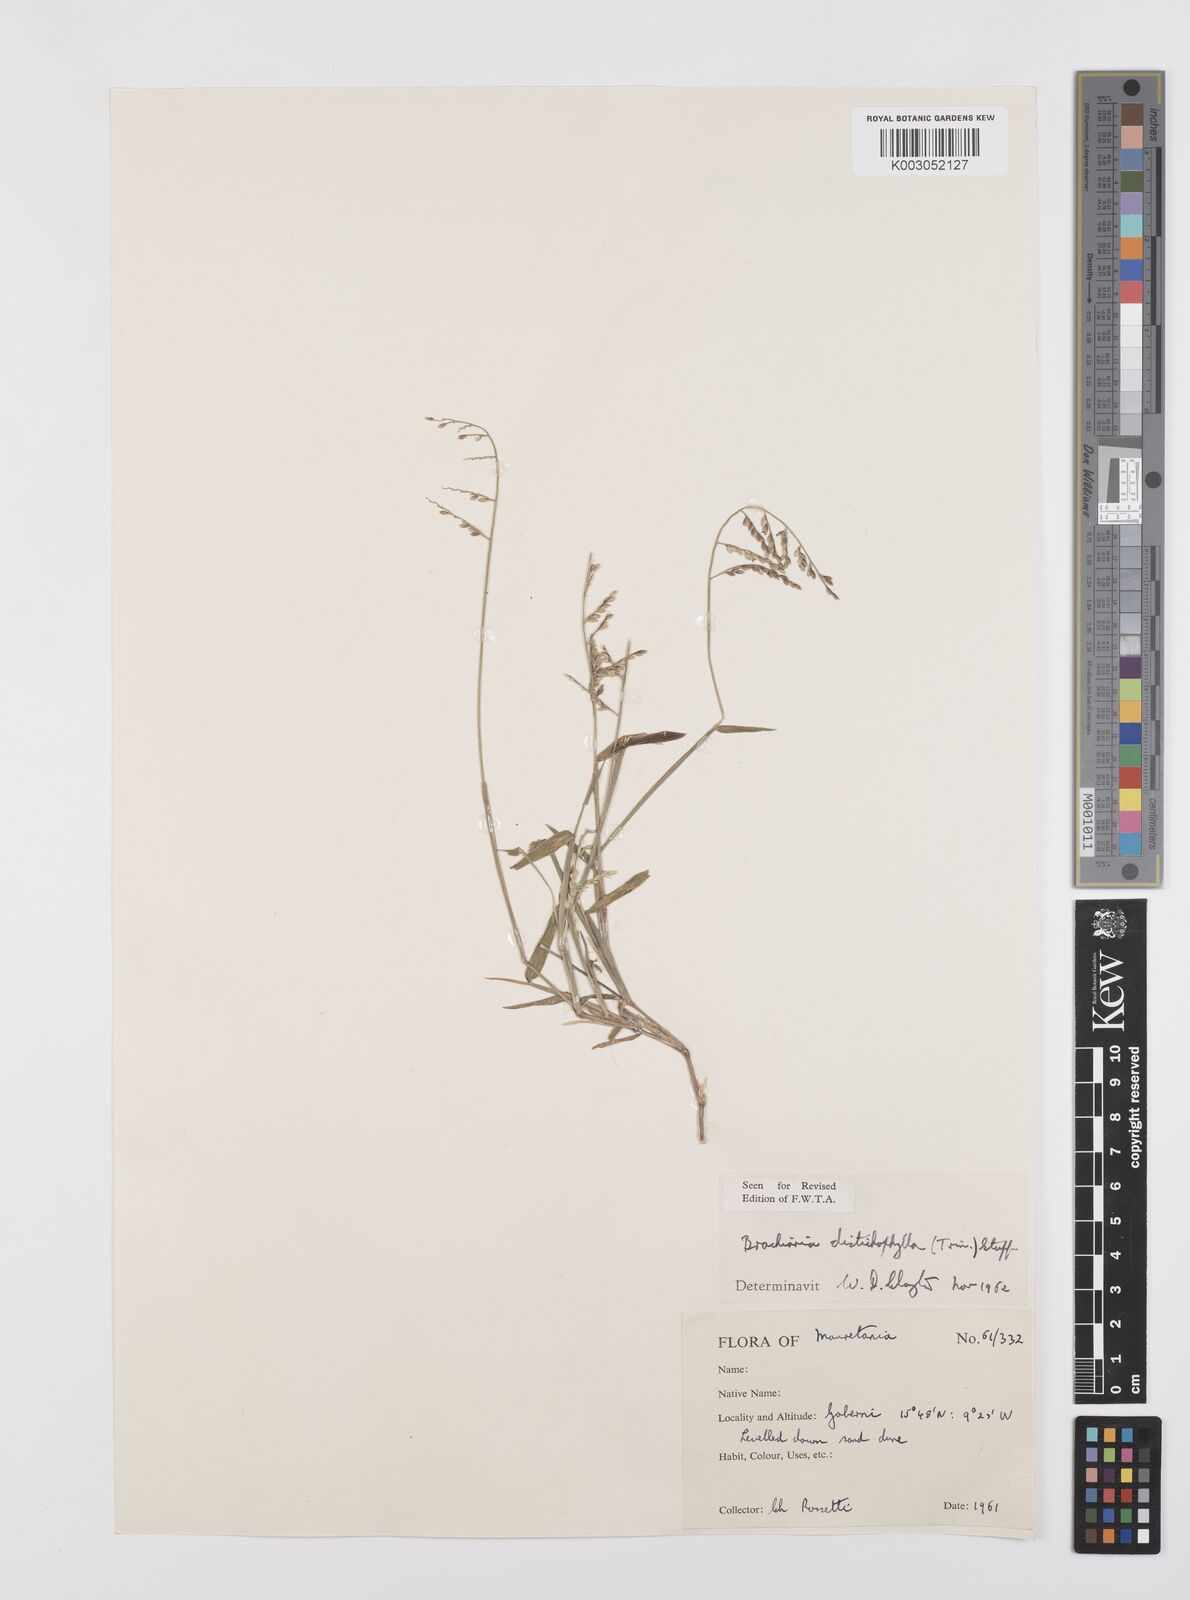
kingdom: Plantae
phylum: Tracheophyta
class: Liliopsida
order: Poales
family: Poaceae
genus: Urochloa
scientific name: Urochloa villosa
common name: Hairy signalgrass
